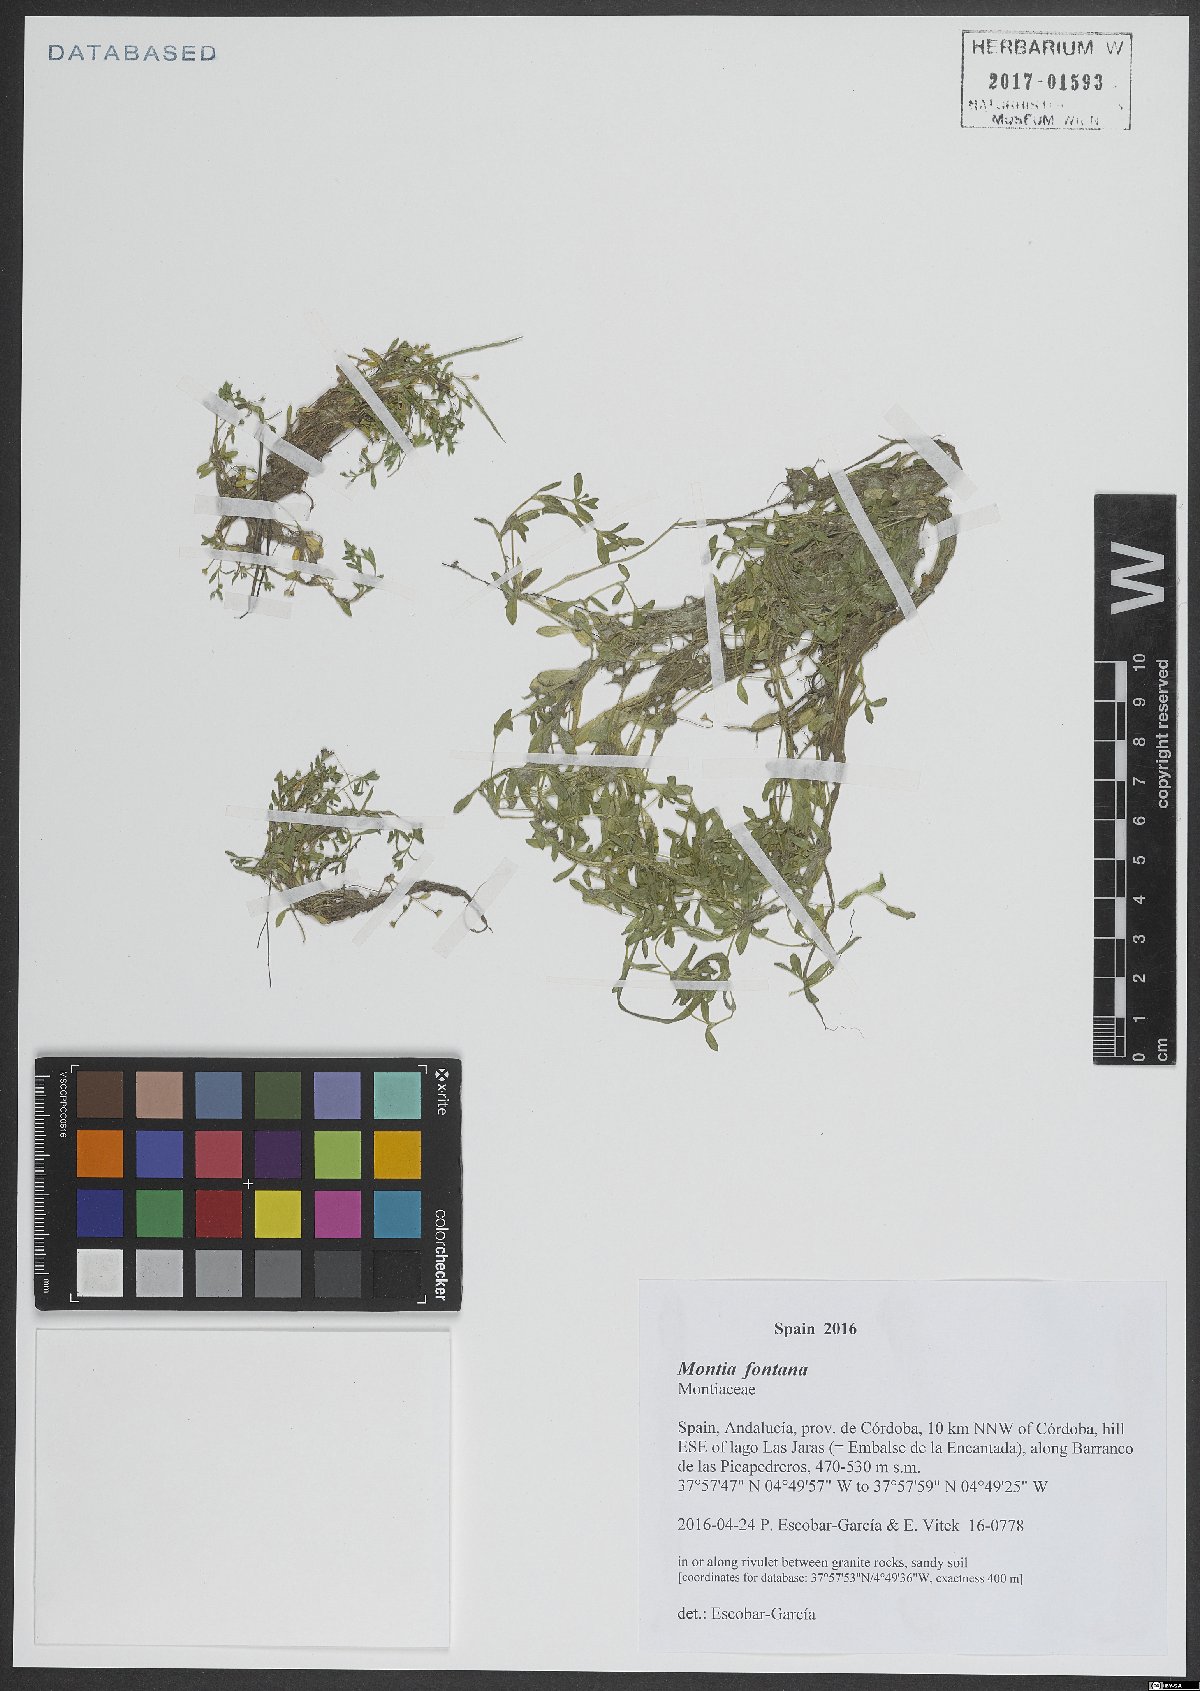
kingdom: Plantae
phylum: Tracheophyta
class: Magnoliopsida
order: Caryophyllales
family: Montiaceae
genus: Montia
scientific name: Montia fontana
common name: Blinks
